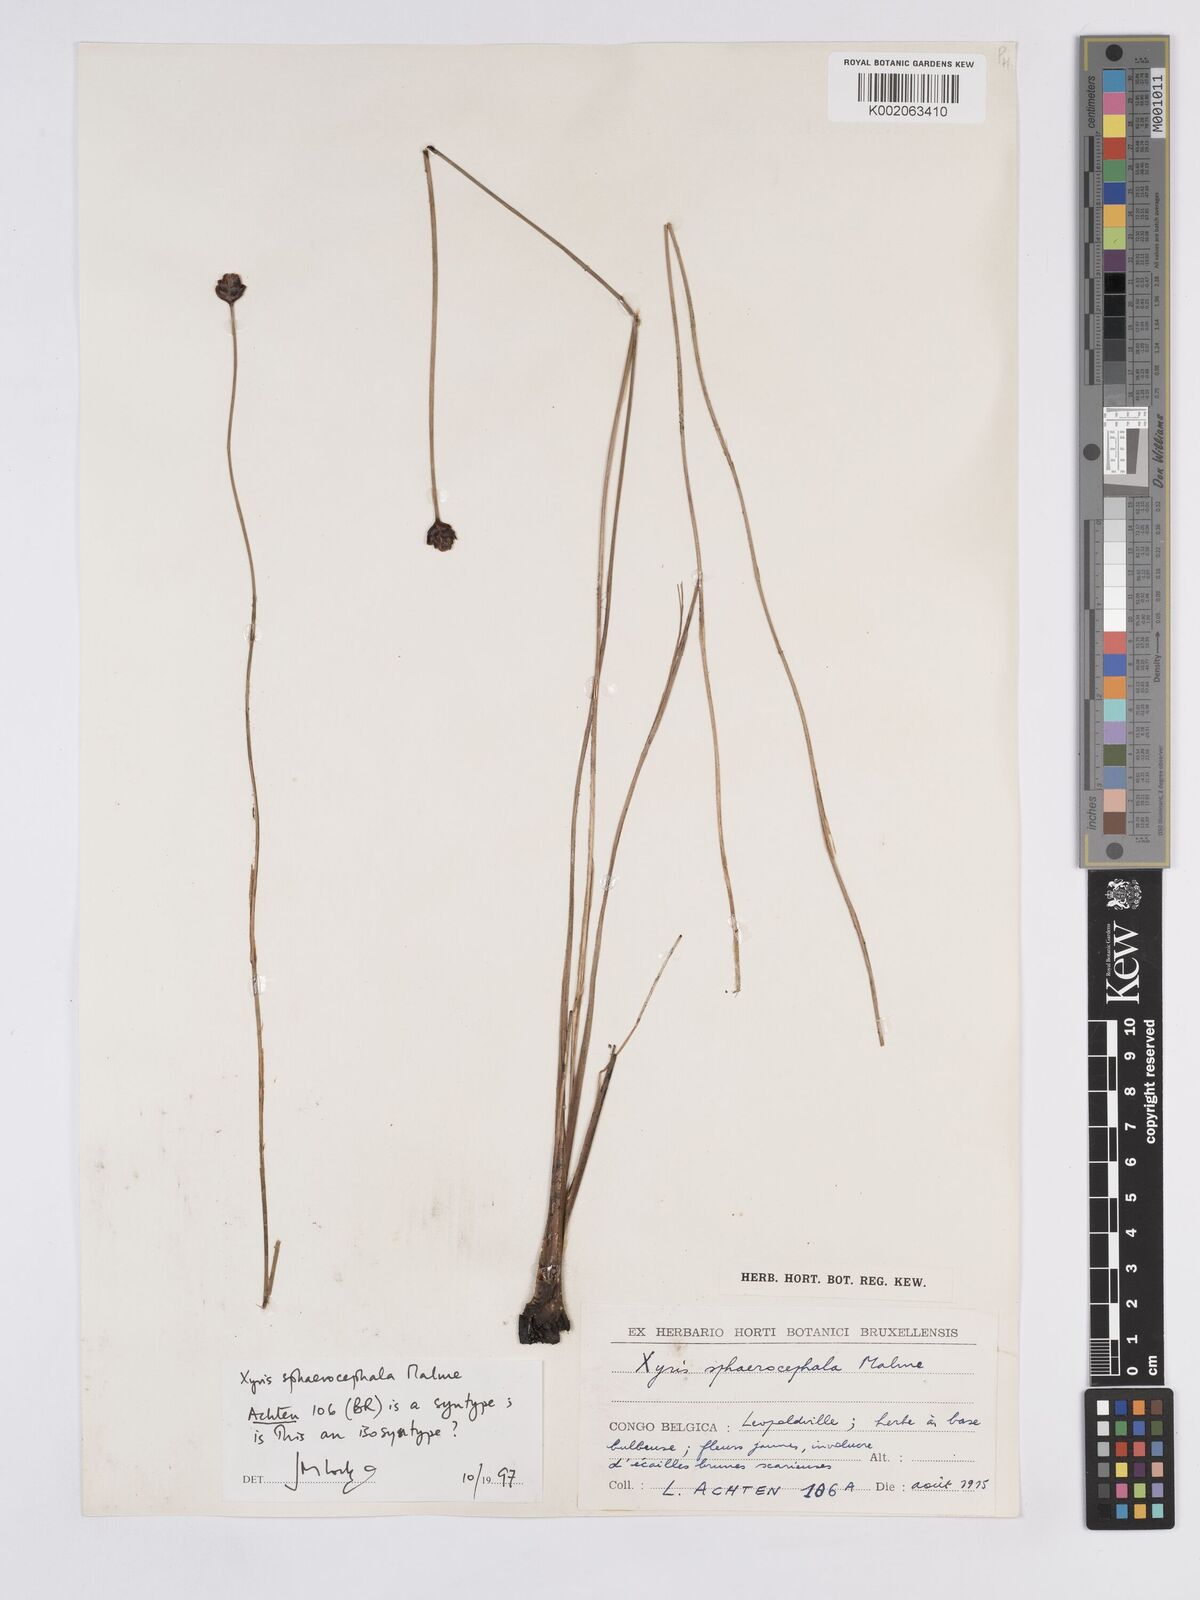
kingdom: Plantae
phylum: Tracheophyta
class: Liliopsida
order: Poales
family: Xyridaceae
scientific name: Xyridaceae
